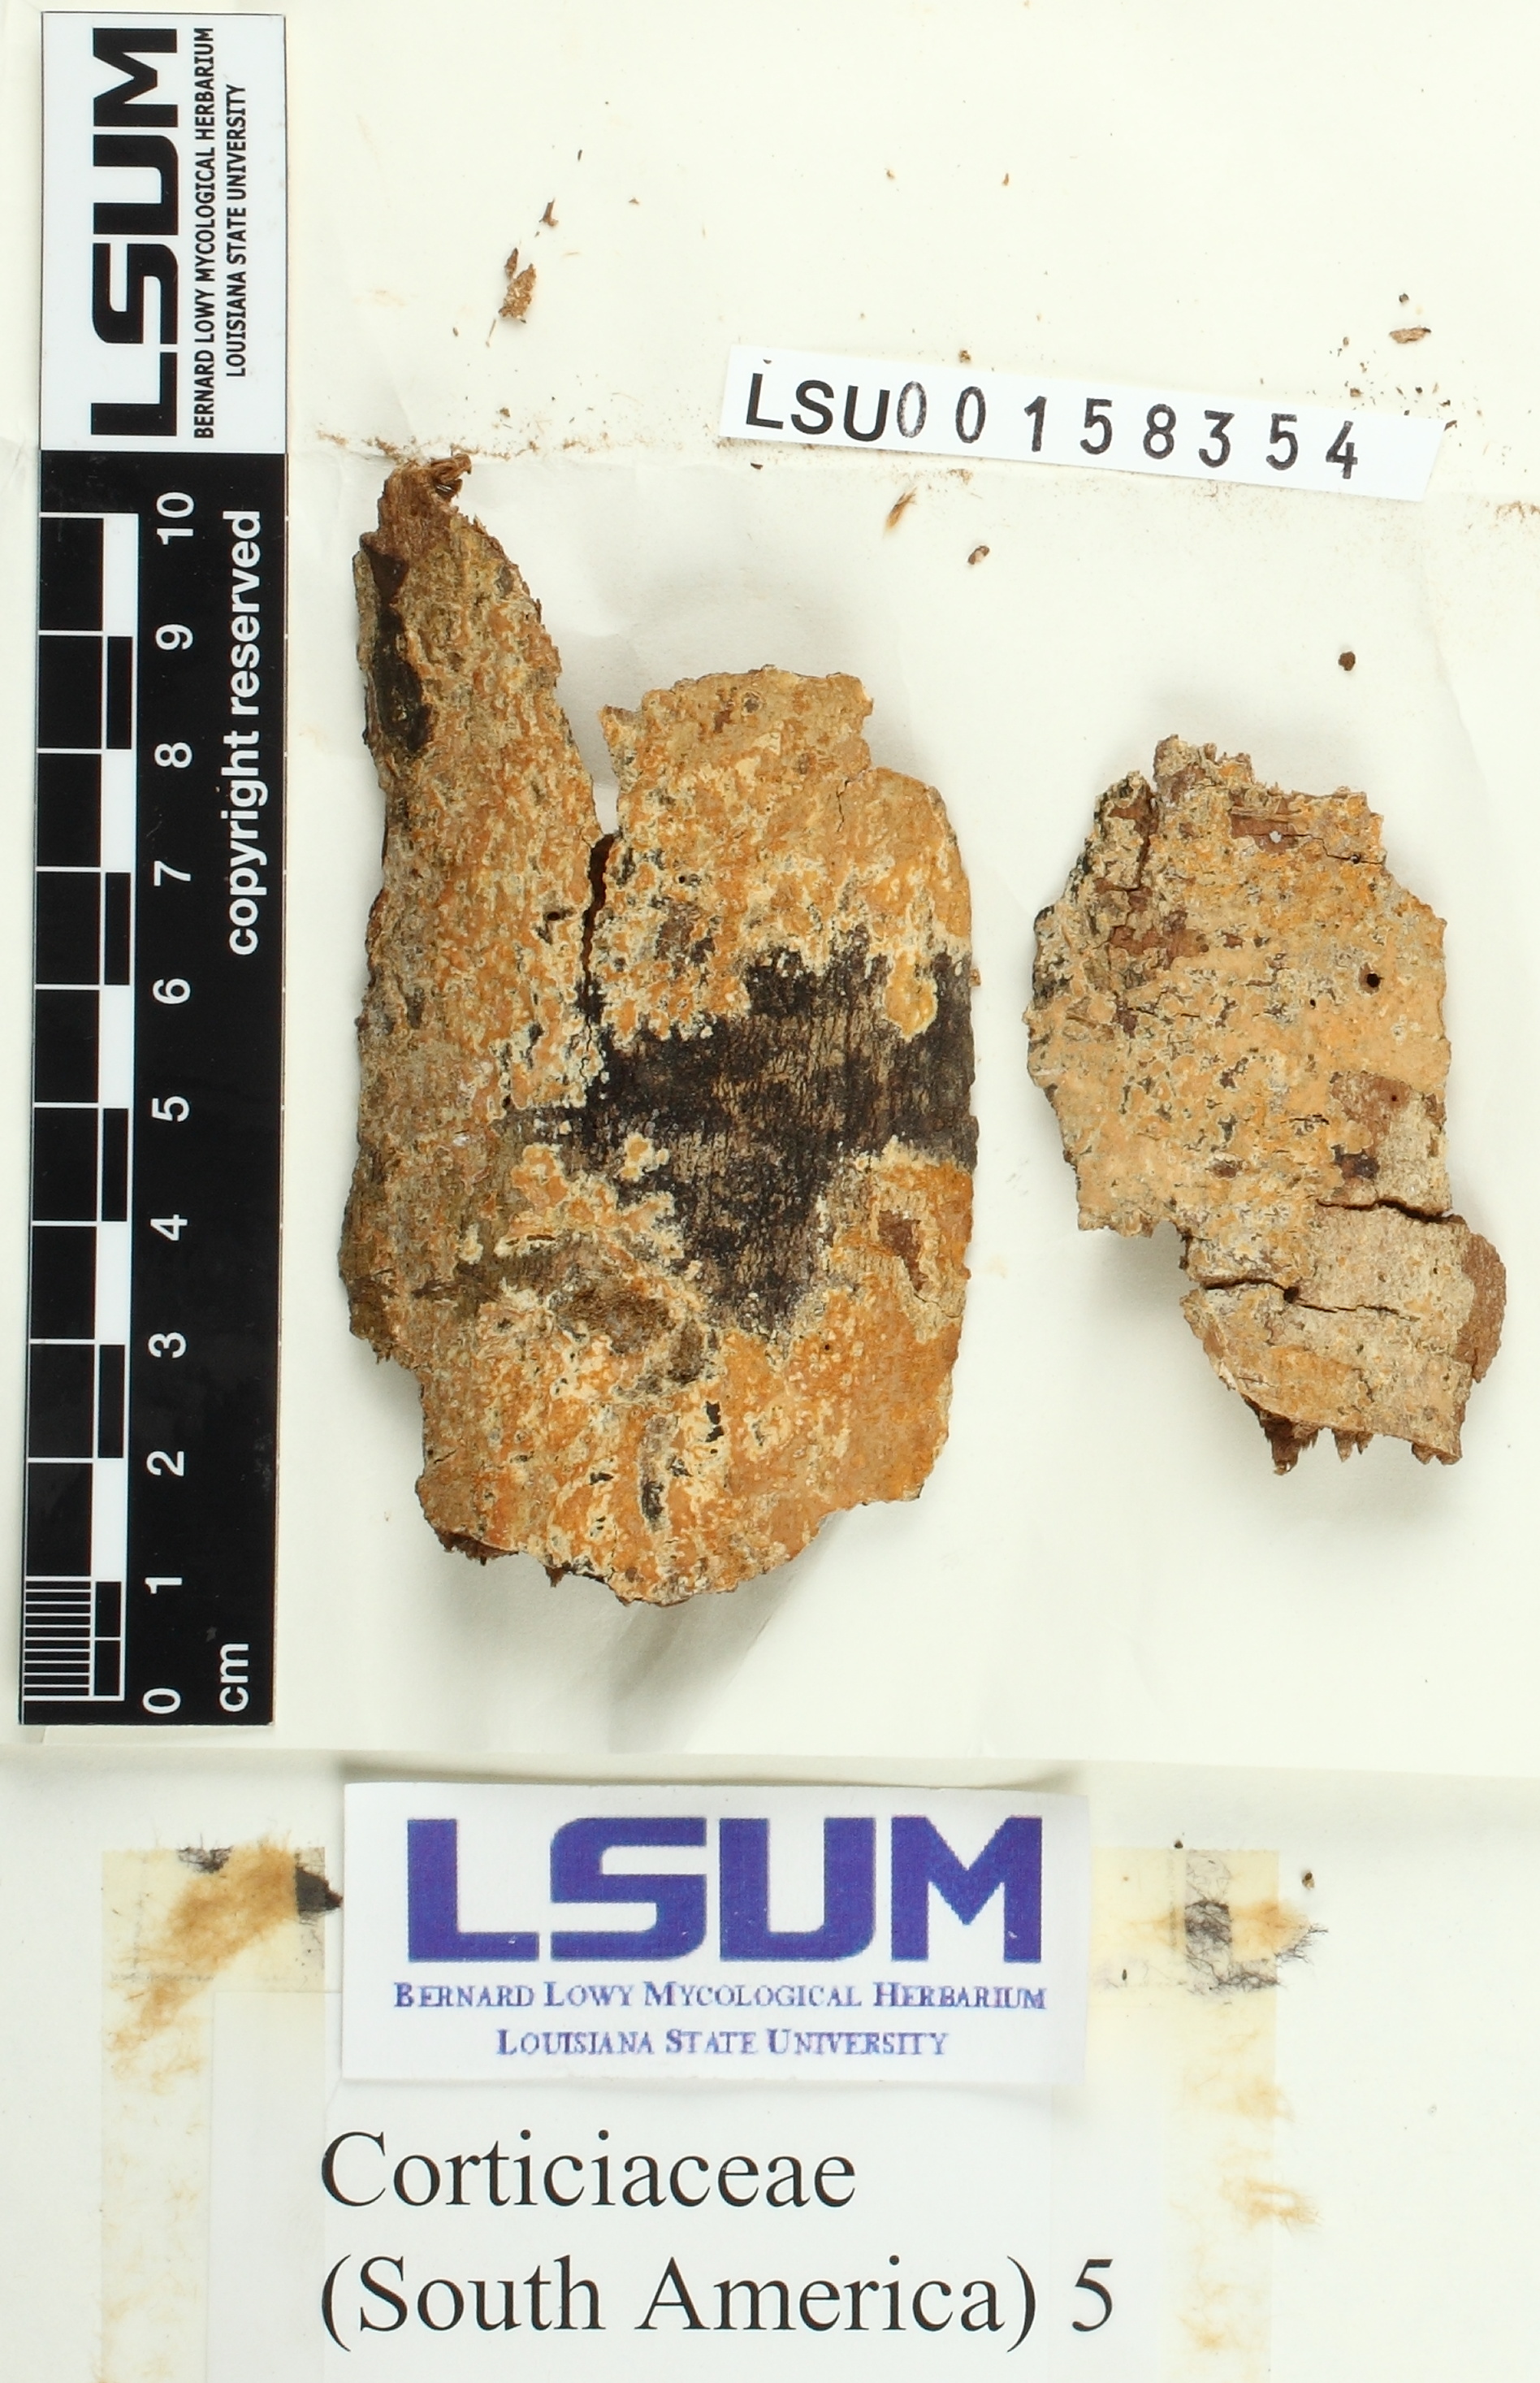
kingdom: Fungi
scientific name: Fungi
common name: Fungi
